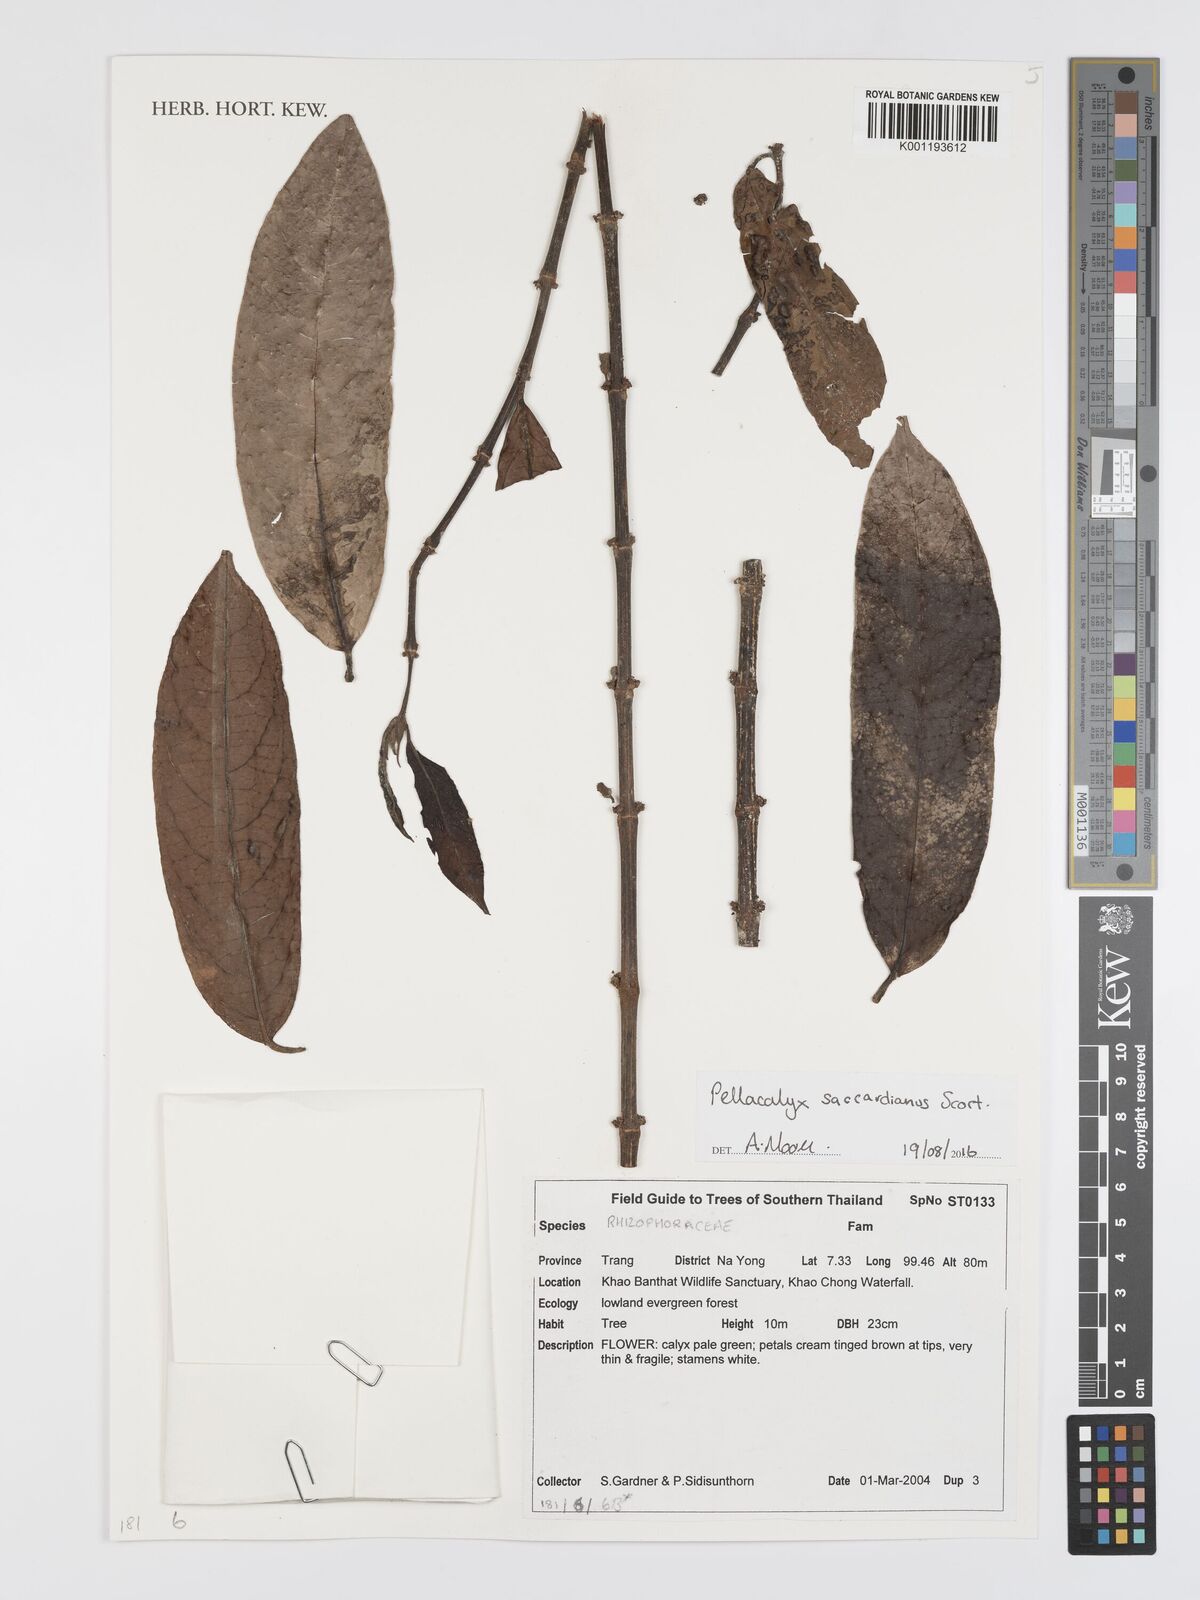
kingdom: Plantae
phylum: Tracheophyta
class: Magnoliopsida
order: Malpighiales
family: Rhizophoraceae
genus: Pellacalyx
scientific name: Pellacalyx saccardianus
